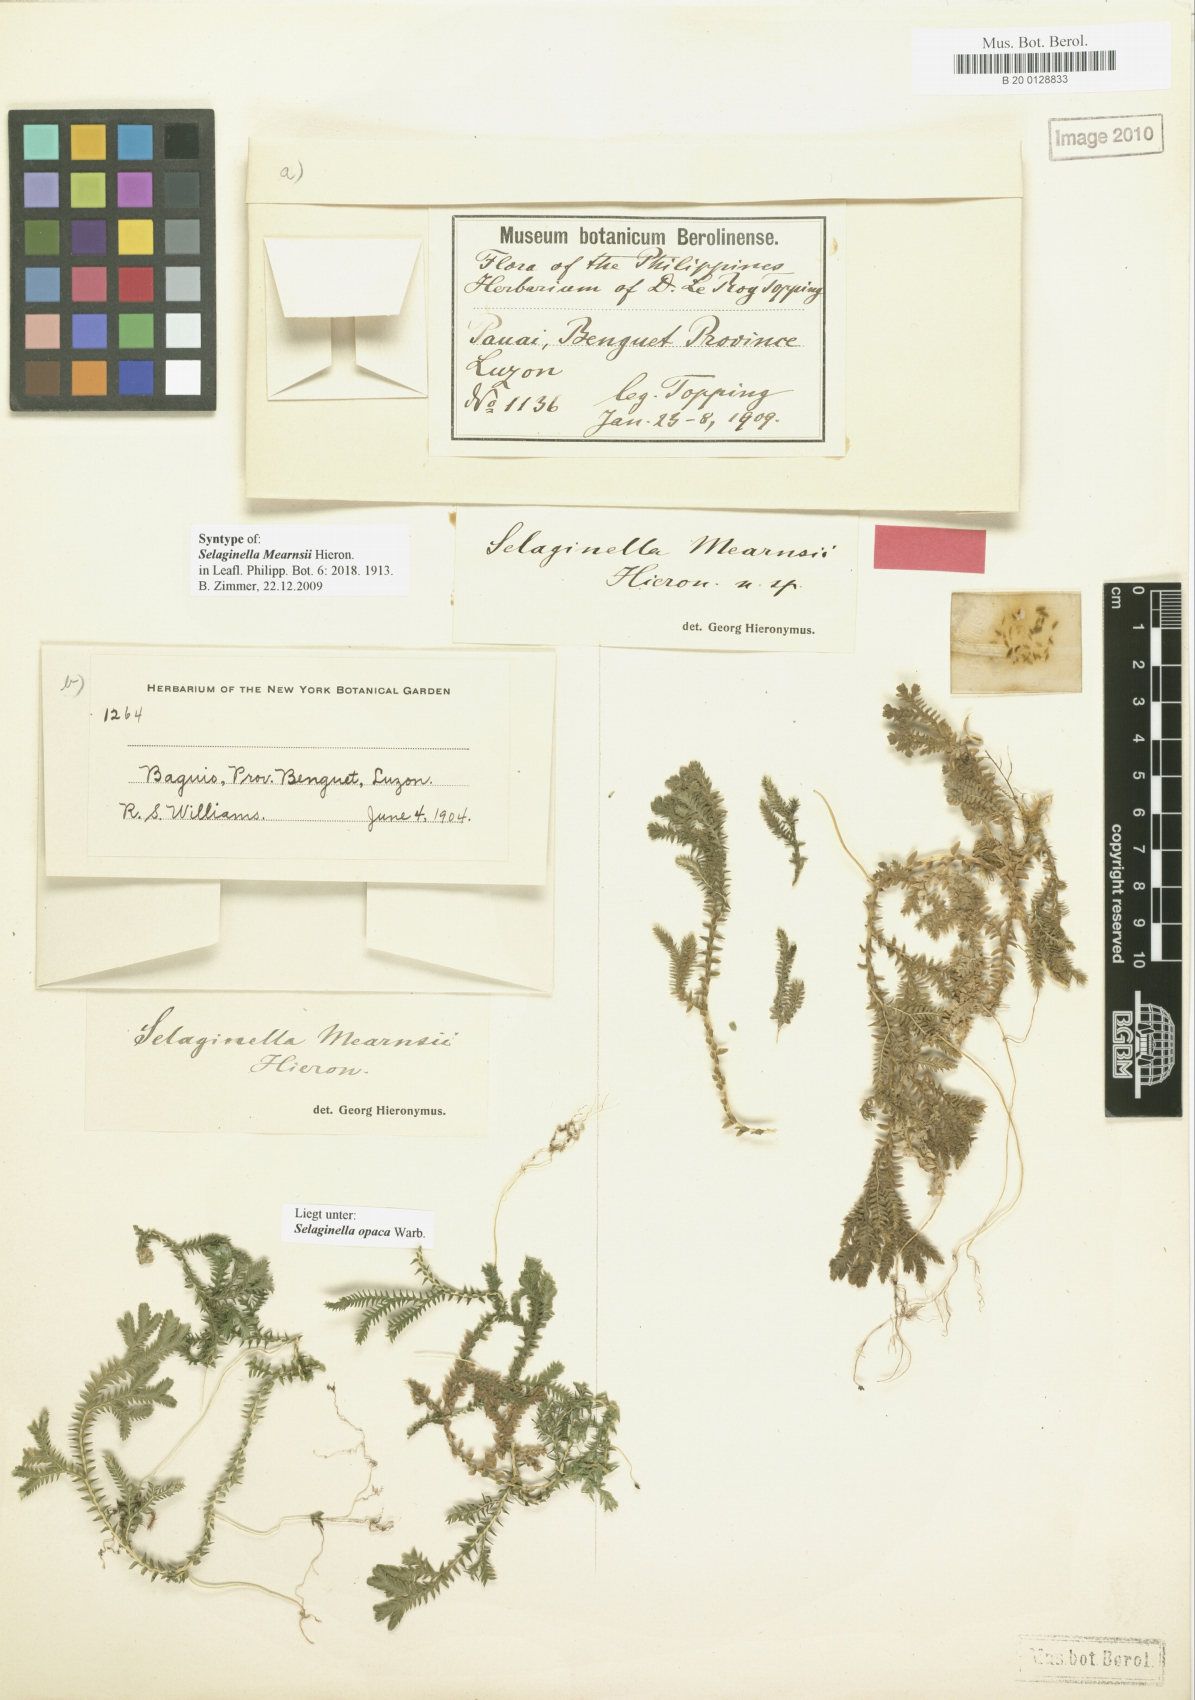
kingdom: Plantae
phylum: Tracheophyta
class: Lycopodiopsida
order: Selaginellales
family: Selaginellaceae
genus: Selaginella
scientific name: Selaginella opaca
